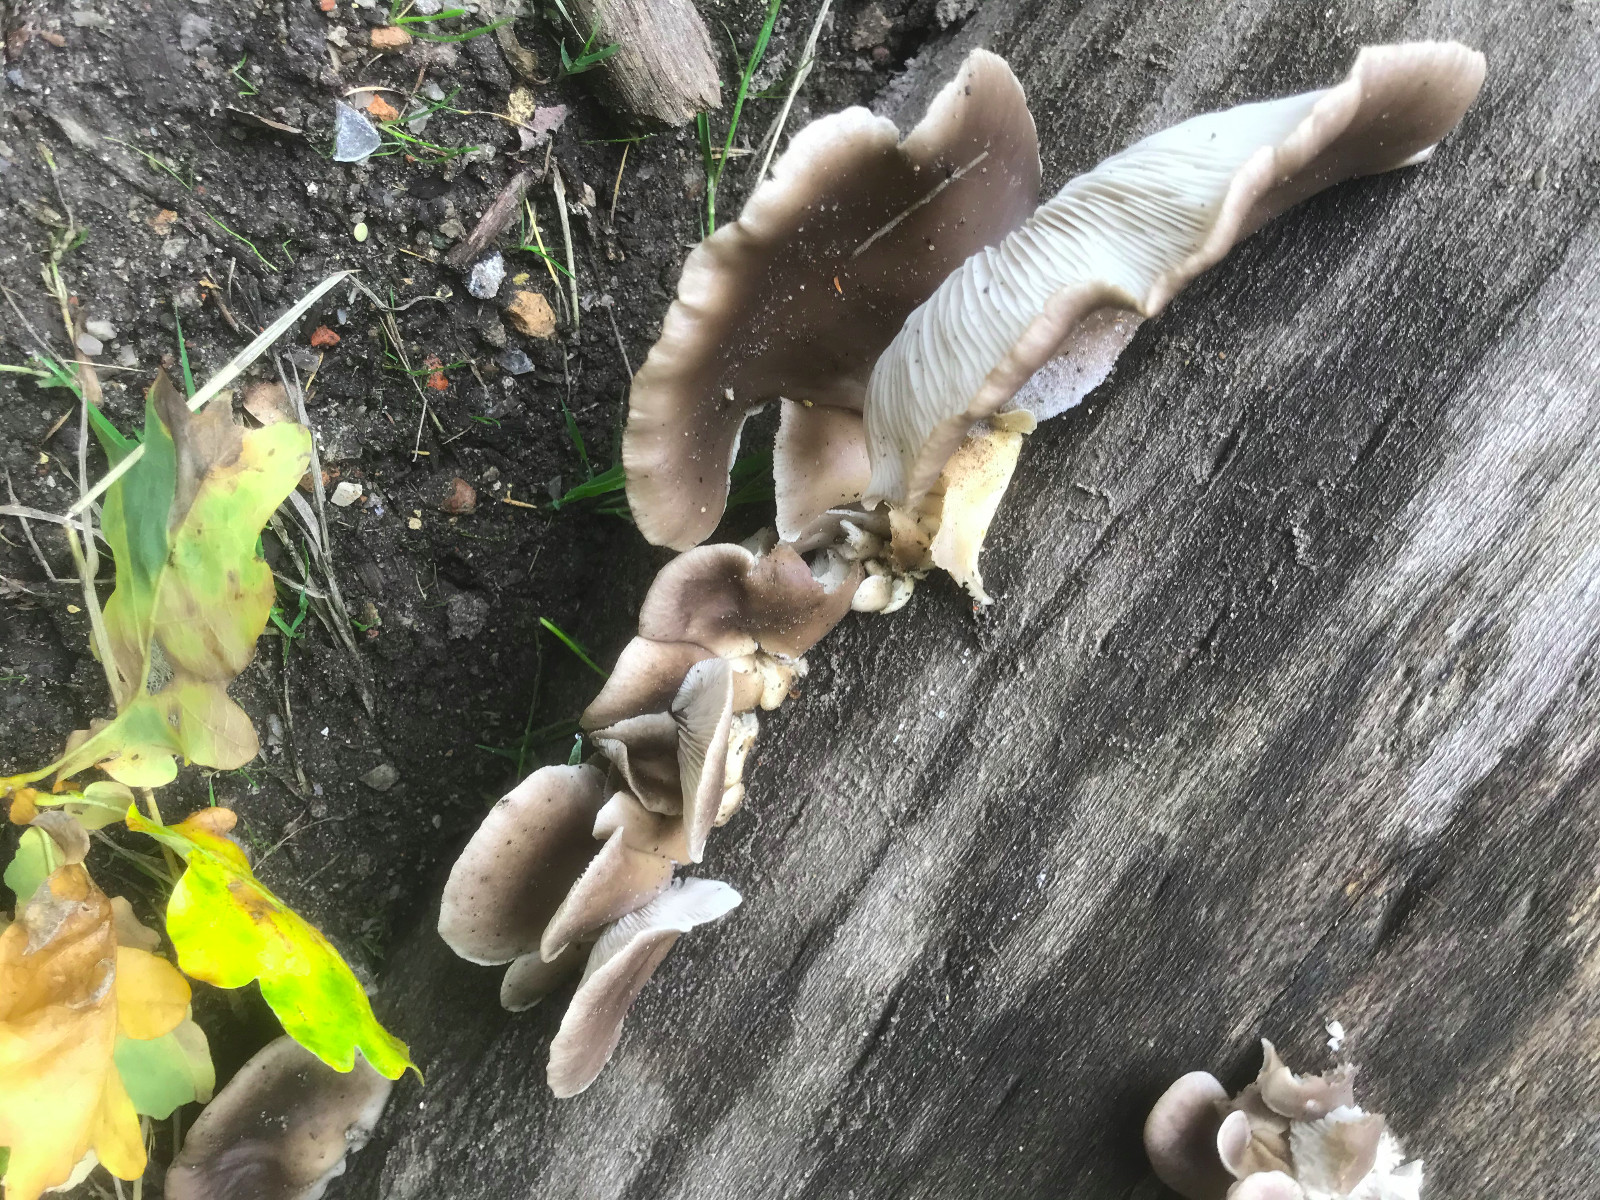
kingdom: Fungi
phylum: Basidiomycota
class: Agaricomycetes
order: Agaricales
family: Pleurotaceae
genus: Pleurotus
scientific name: Pleurotus ostreatus
